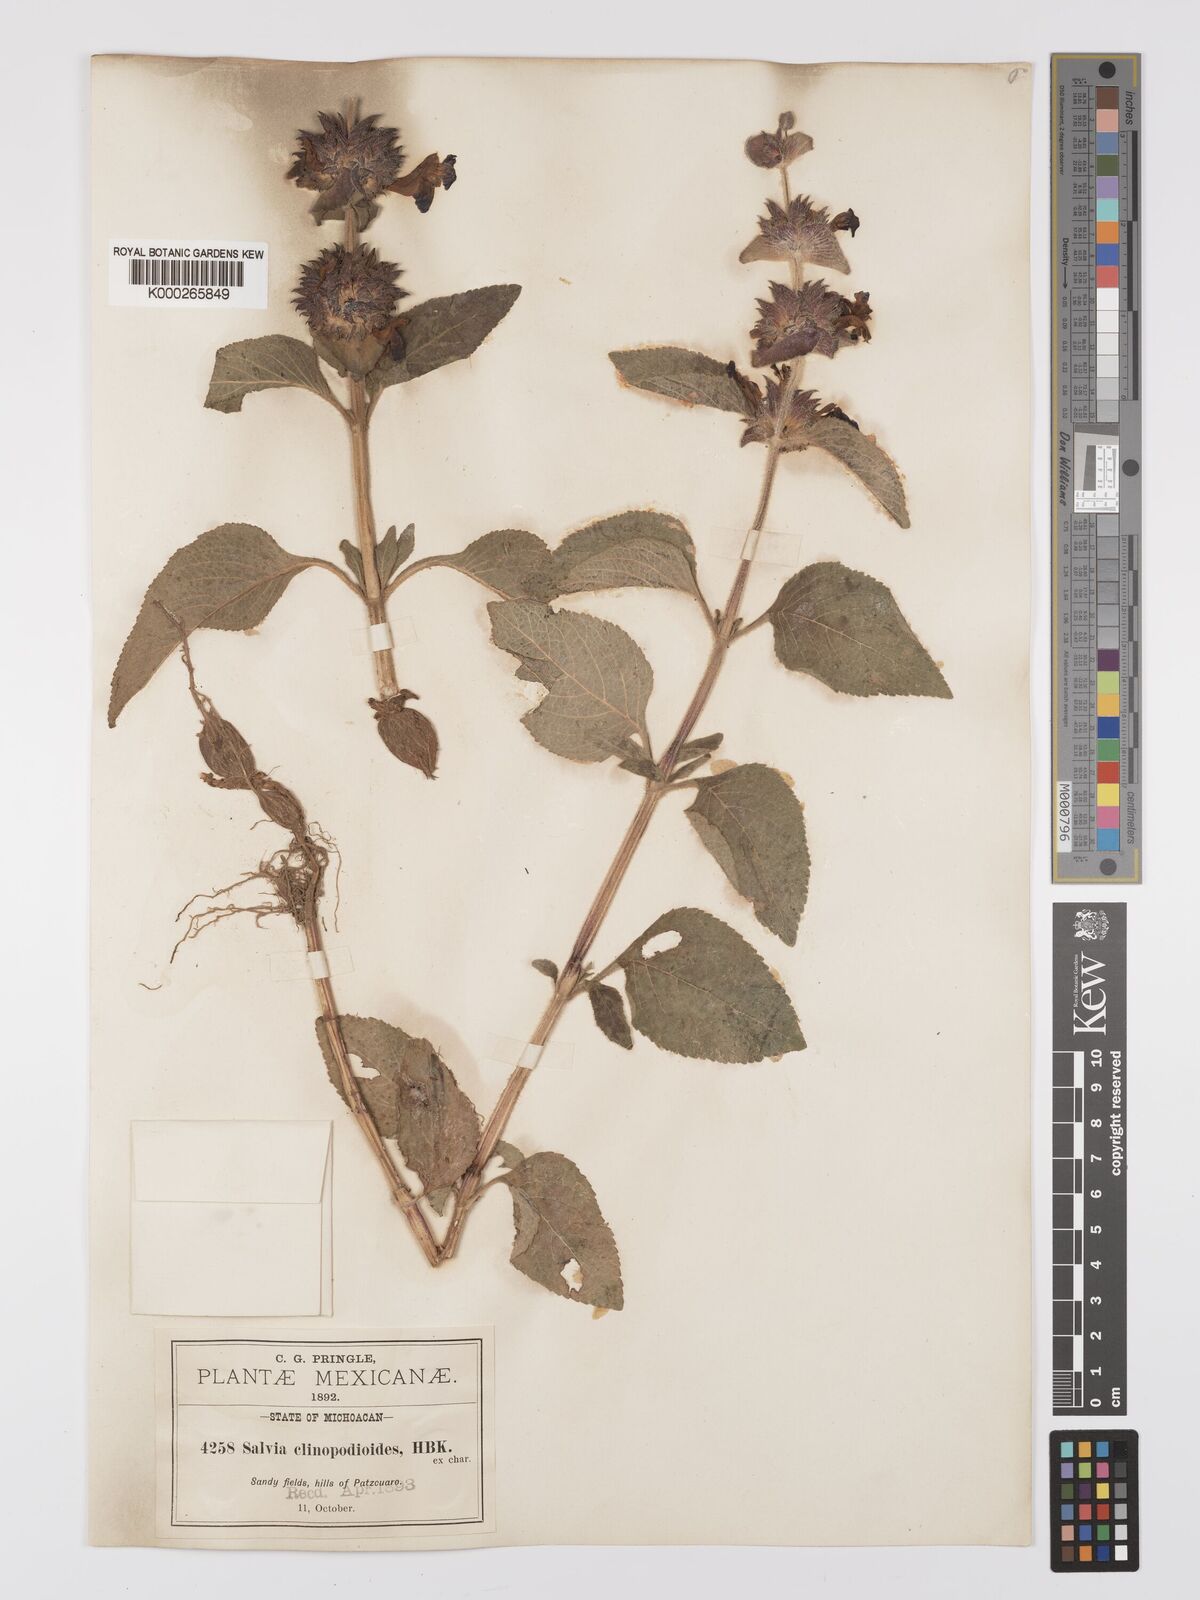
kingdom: Plantae
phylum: Tracheophyta
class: Magnoliopsida
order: Lamiales
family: Lamiaceae
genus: Salvia
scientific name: Salvia clinopodioides
